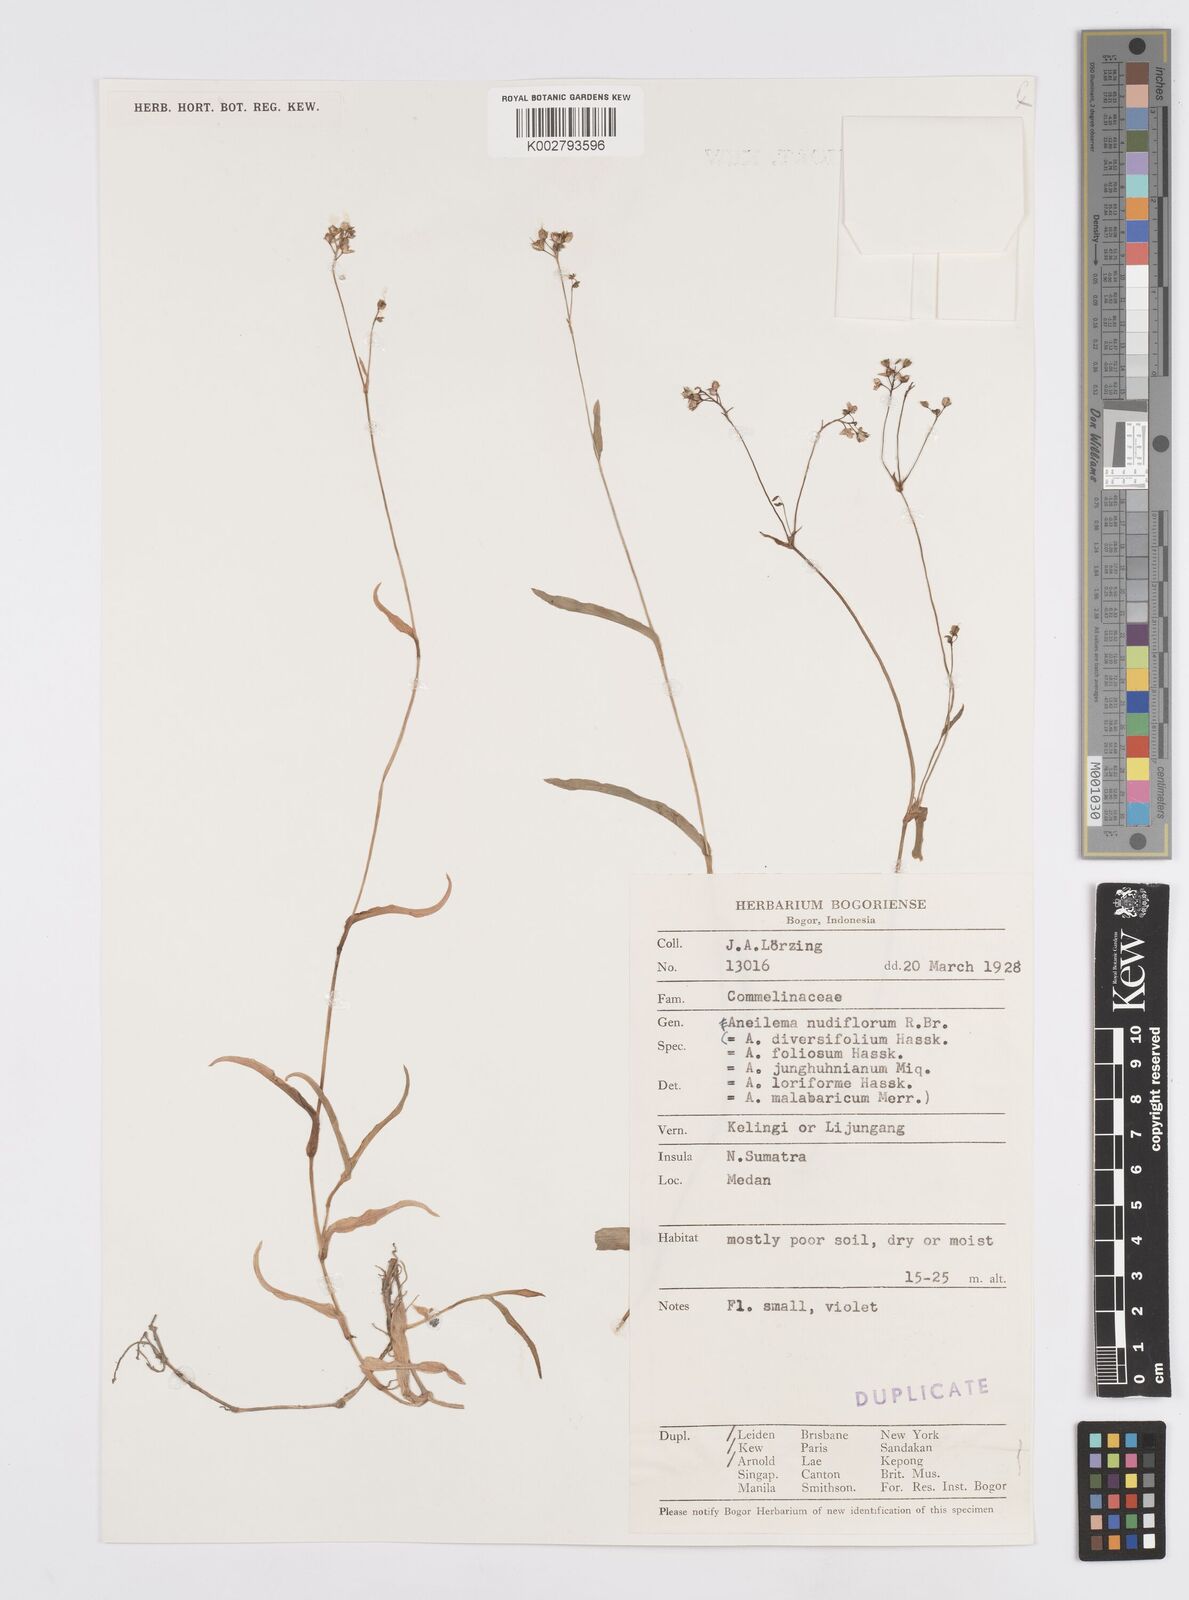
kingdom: Plantae
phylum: Tracheophyta
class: Liliopsida
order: Commelinales
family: Commelinaceae
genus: Murdannia
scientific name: Murdannia nudiflora
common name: Nakedstem dewflower
